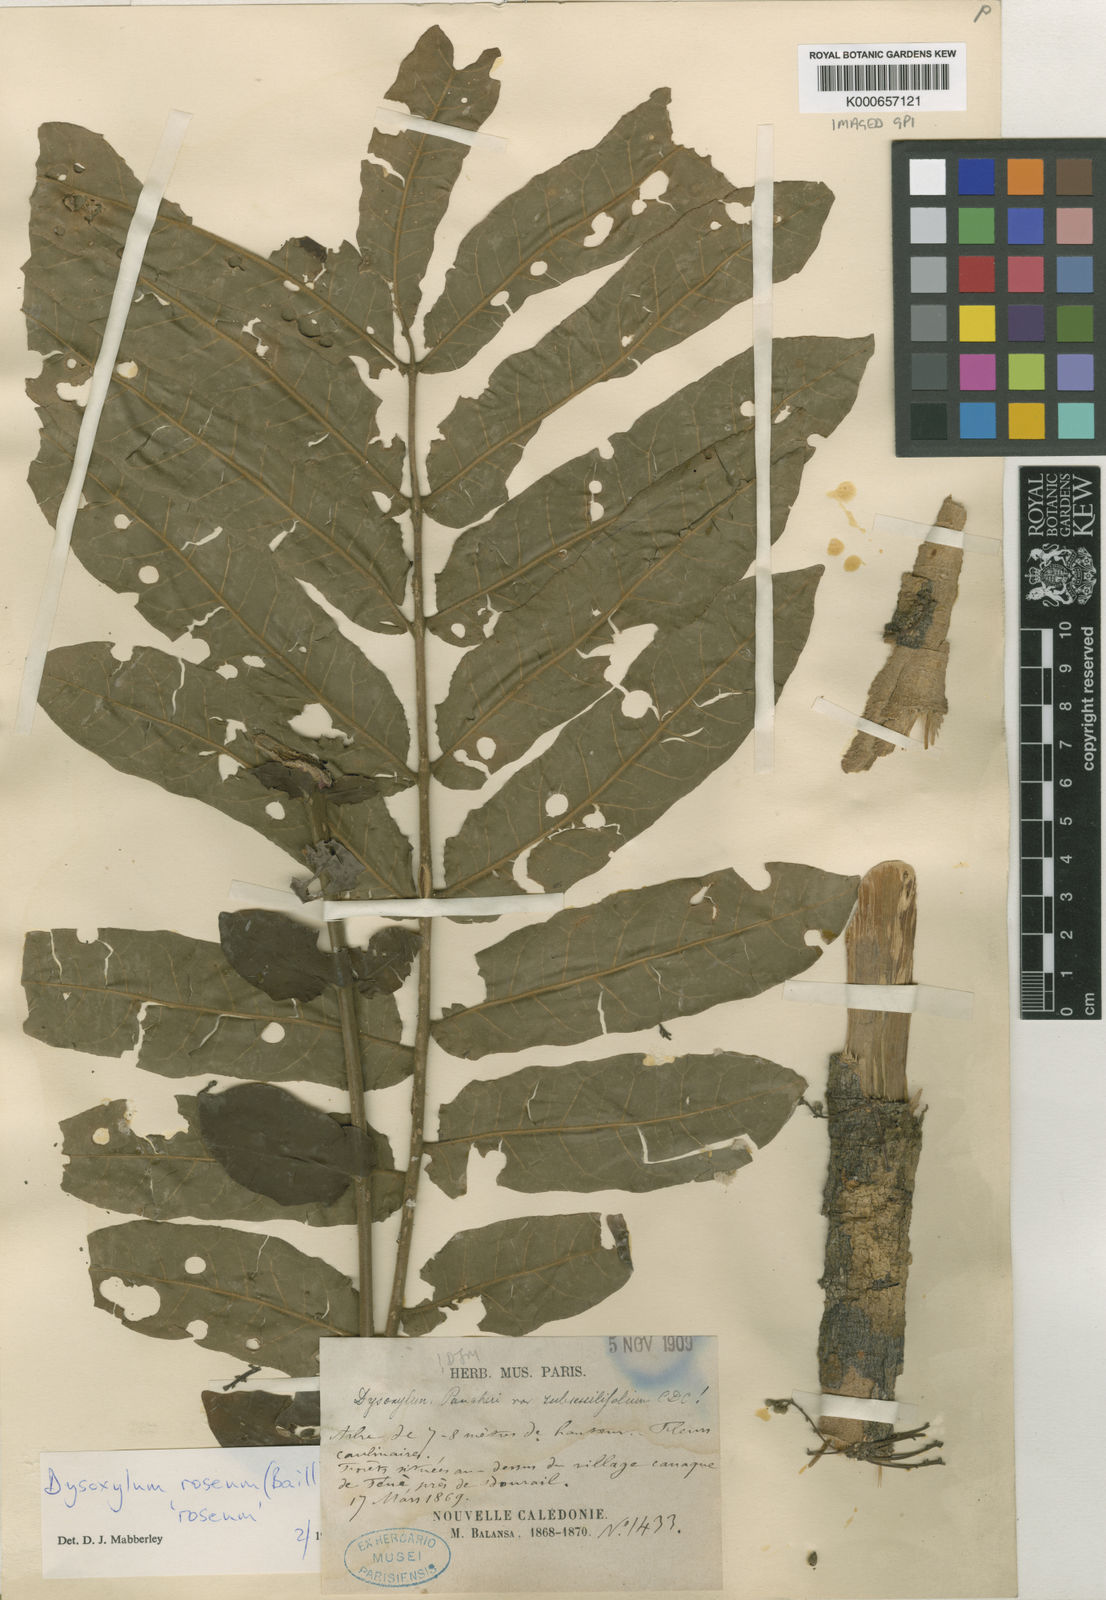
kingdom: Plantae
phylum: Tracheophyta
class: Magnoliopsida
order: Sapindales
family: Meliaceae
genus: Didymocheton
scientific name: Didymocheton roseus
